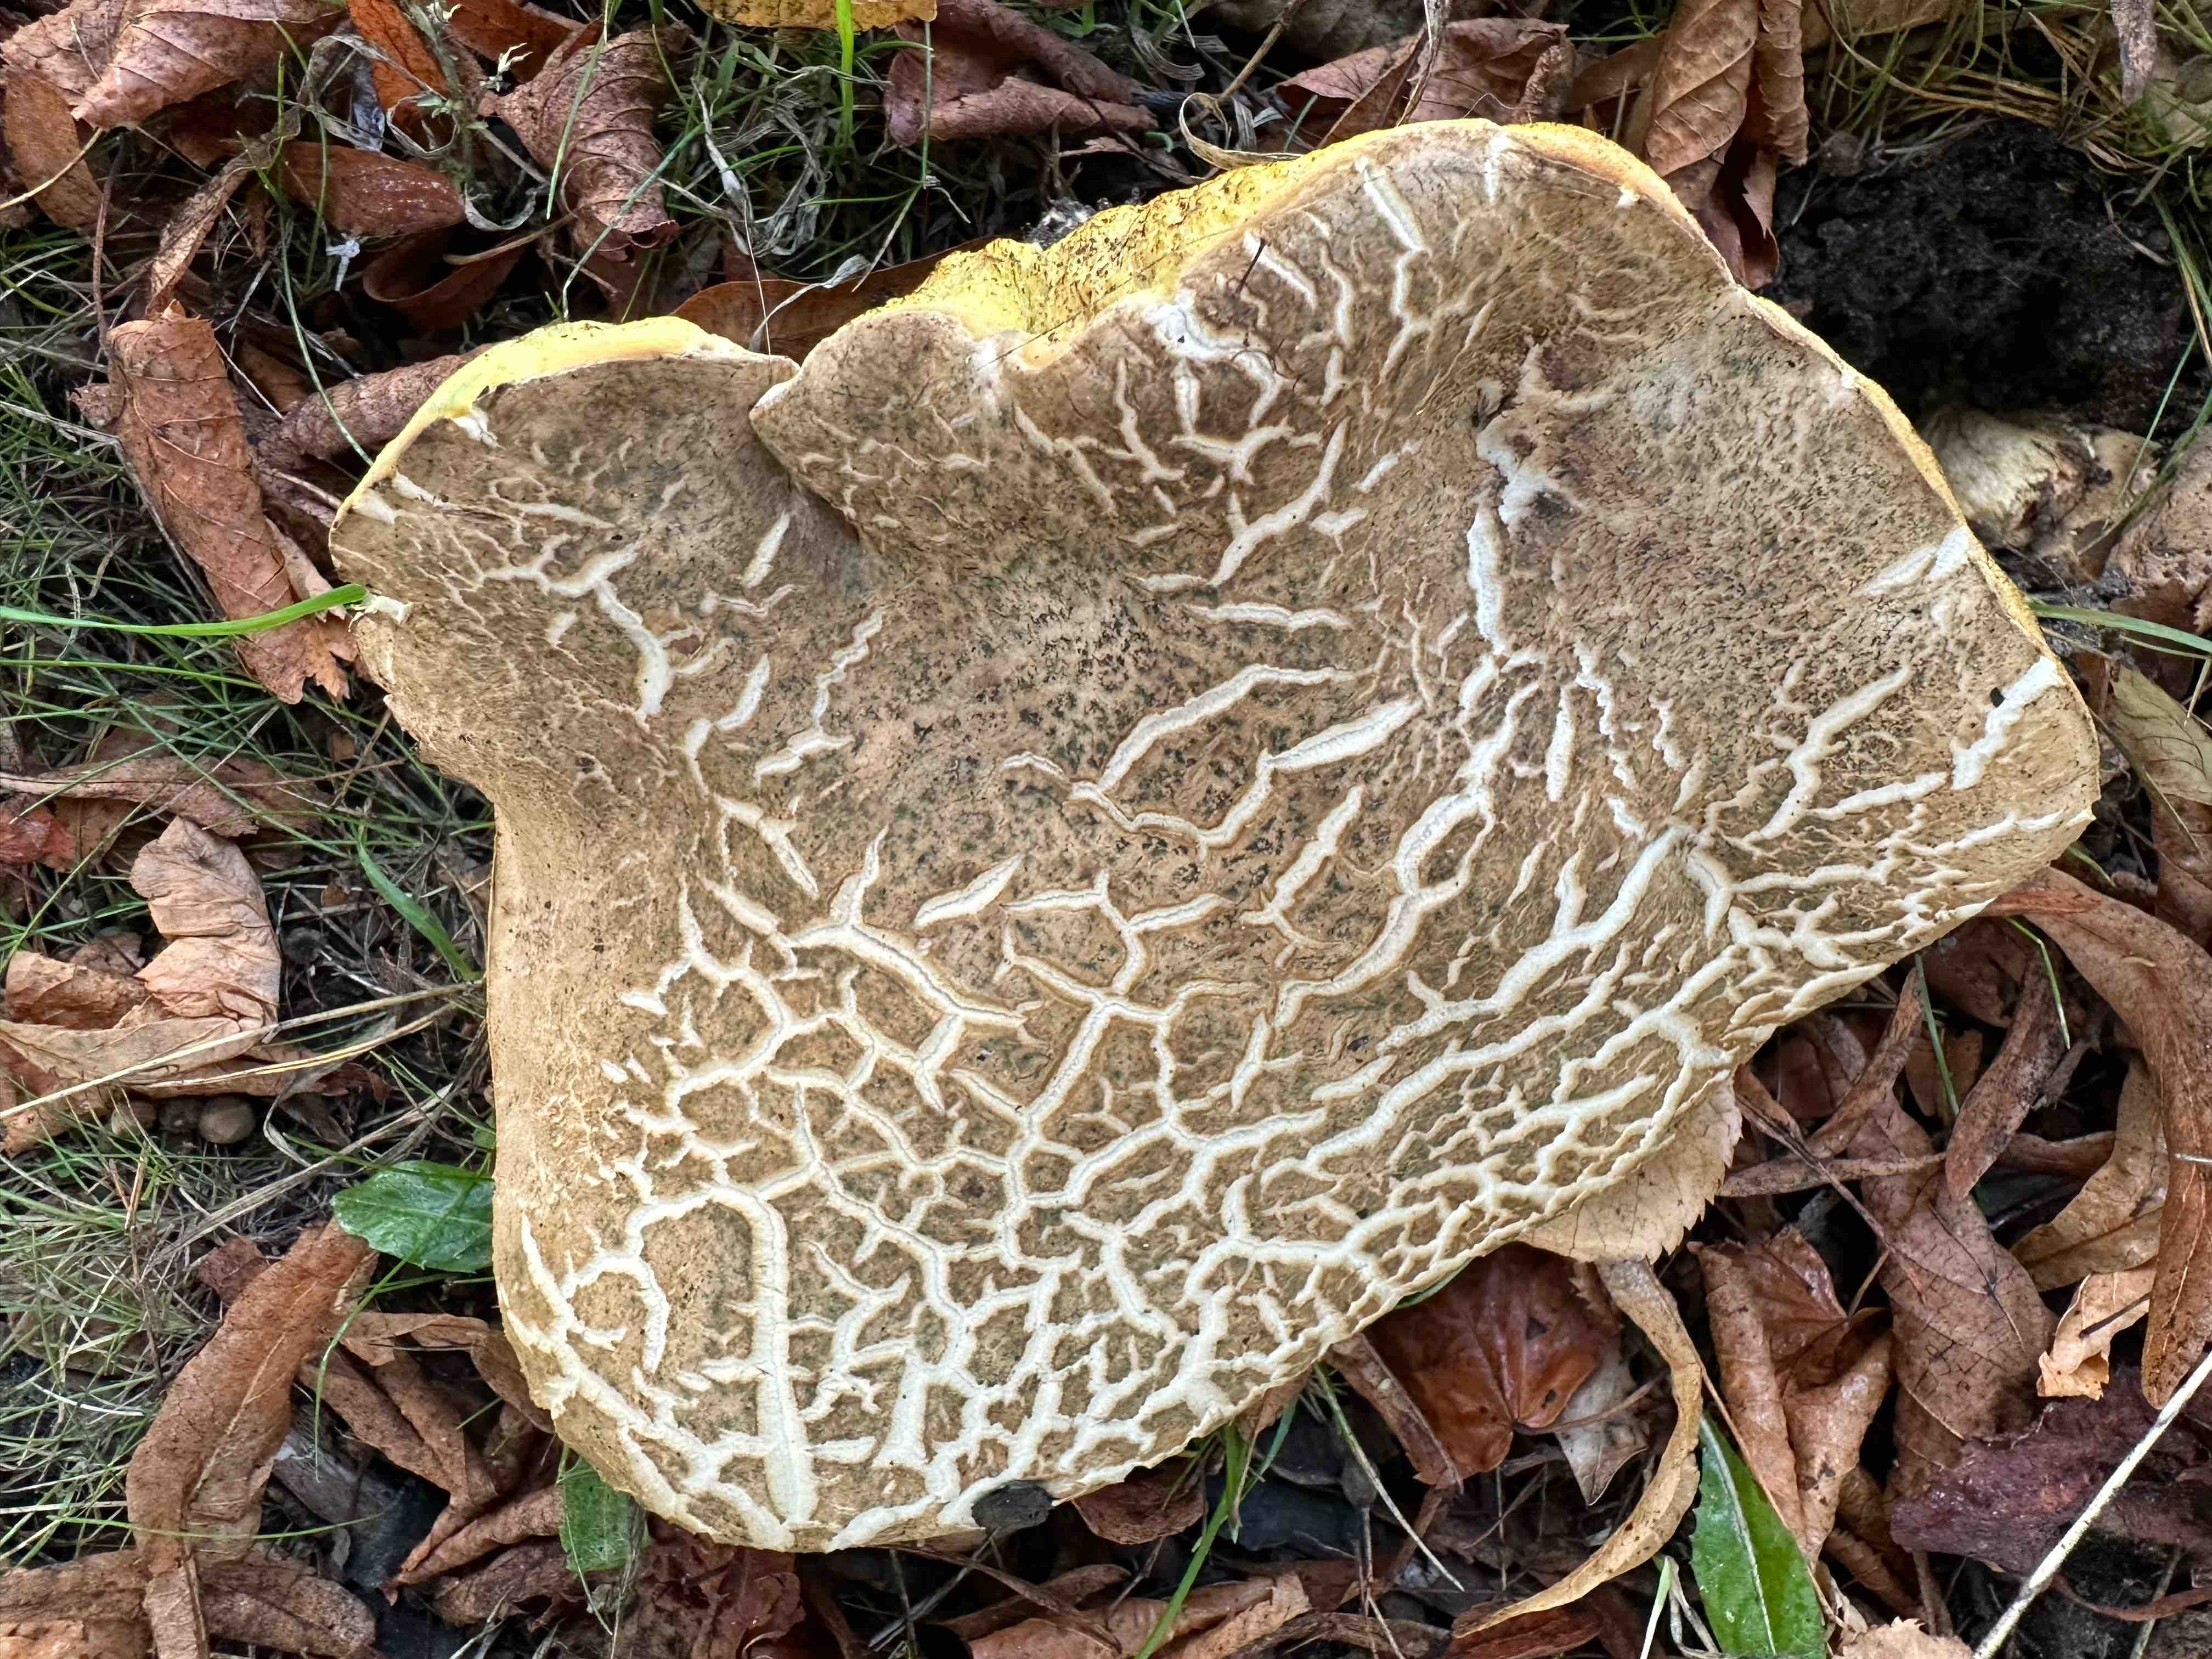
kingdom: Fungi
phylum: Basidiomycota
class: Agaricomycetes
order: Boletales
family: Boletaceae
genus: Caloboletus
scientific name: Caloboletus radicans
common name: rod-rørhat
